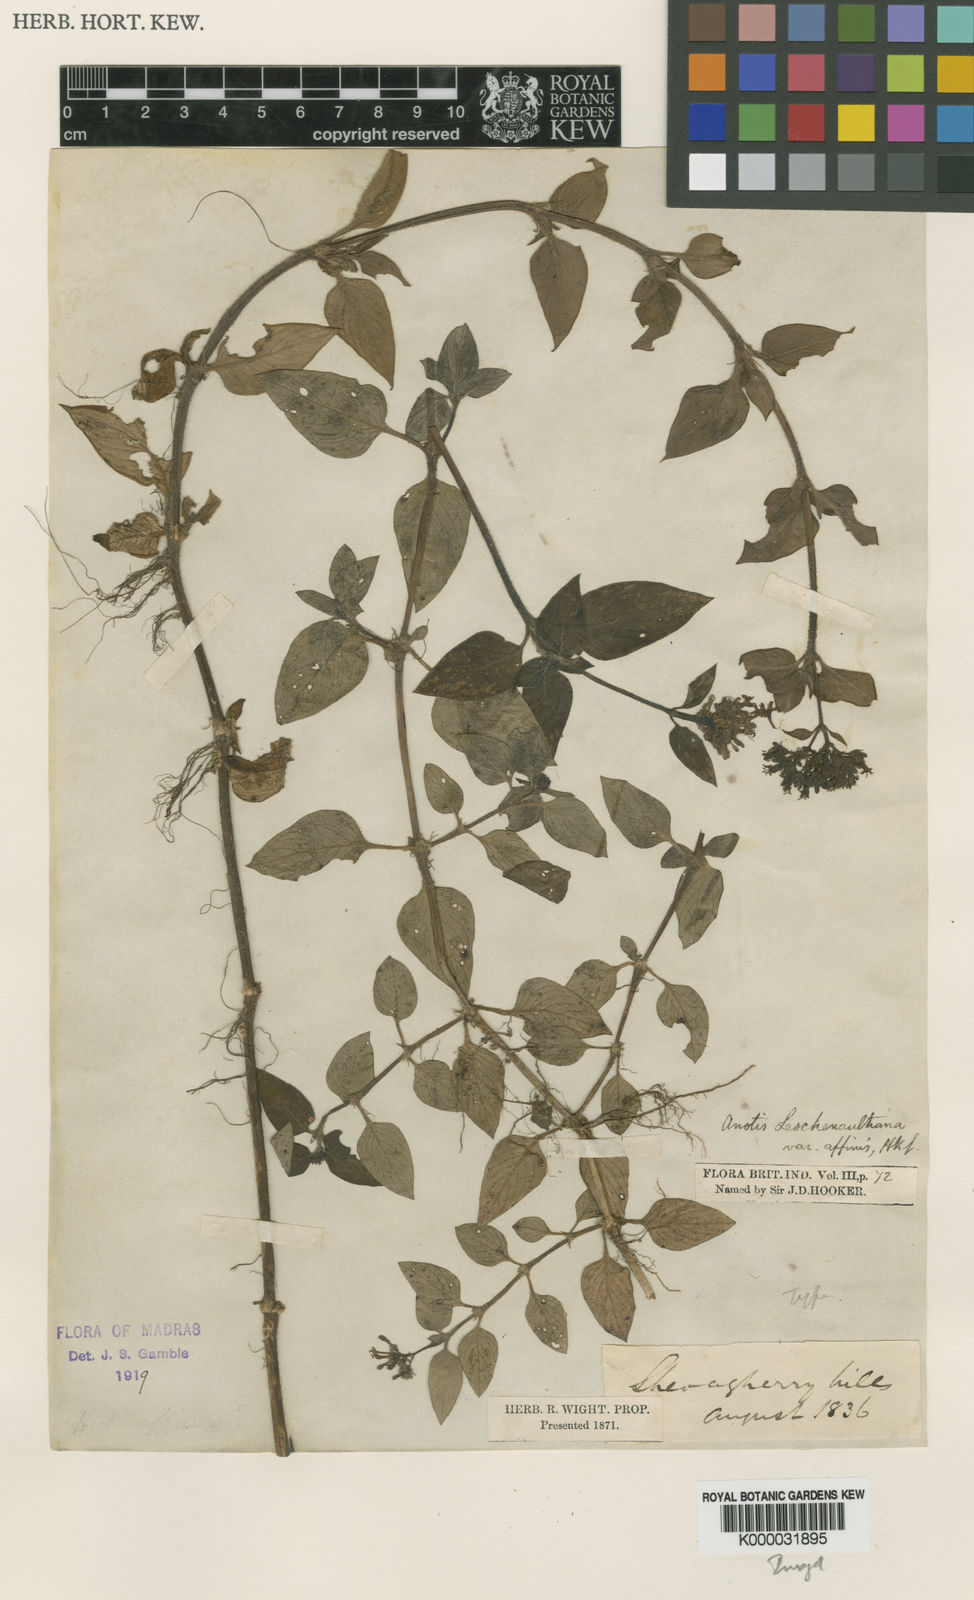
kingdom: Plantae
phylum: Tracheophyta
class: Magnoliopsida
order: Gentianales
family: Rubiaceae
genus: Neanotis
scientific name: Neanotis indica
